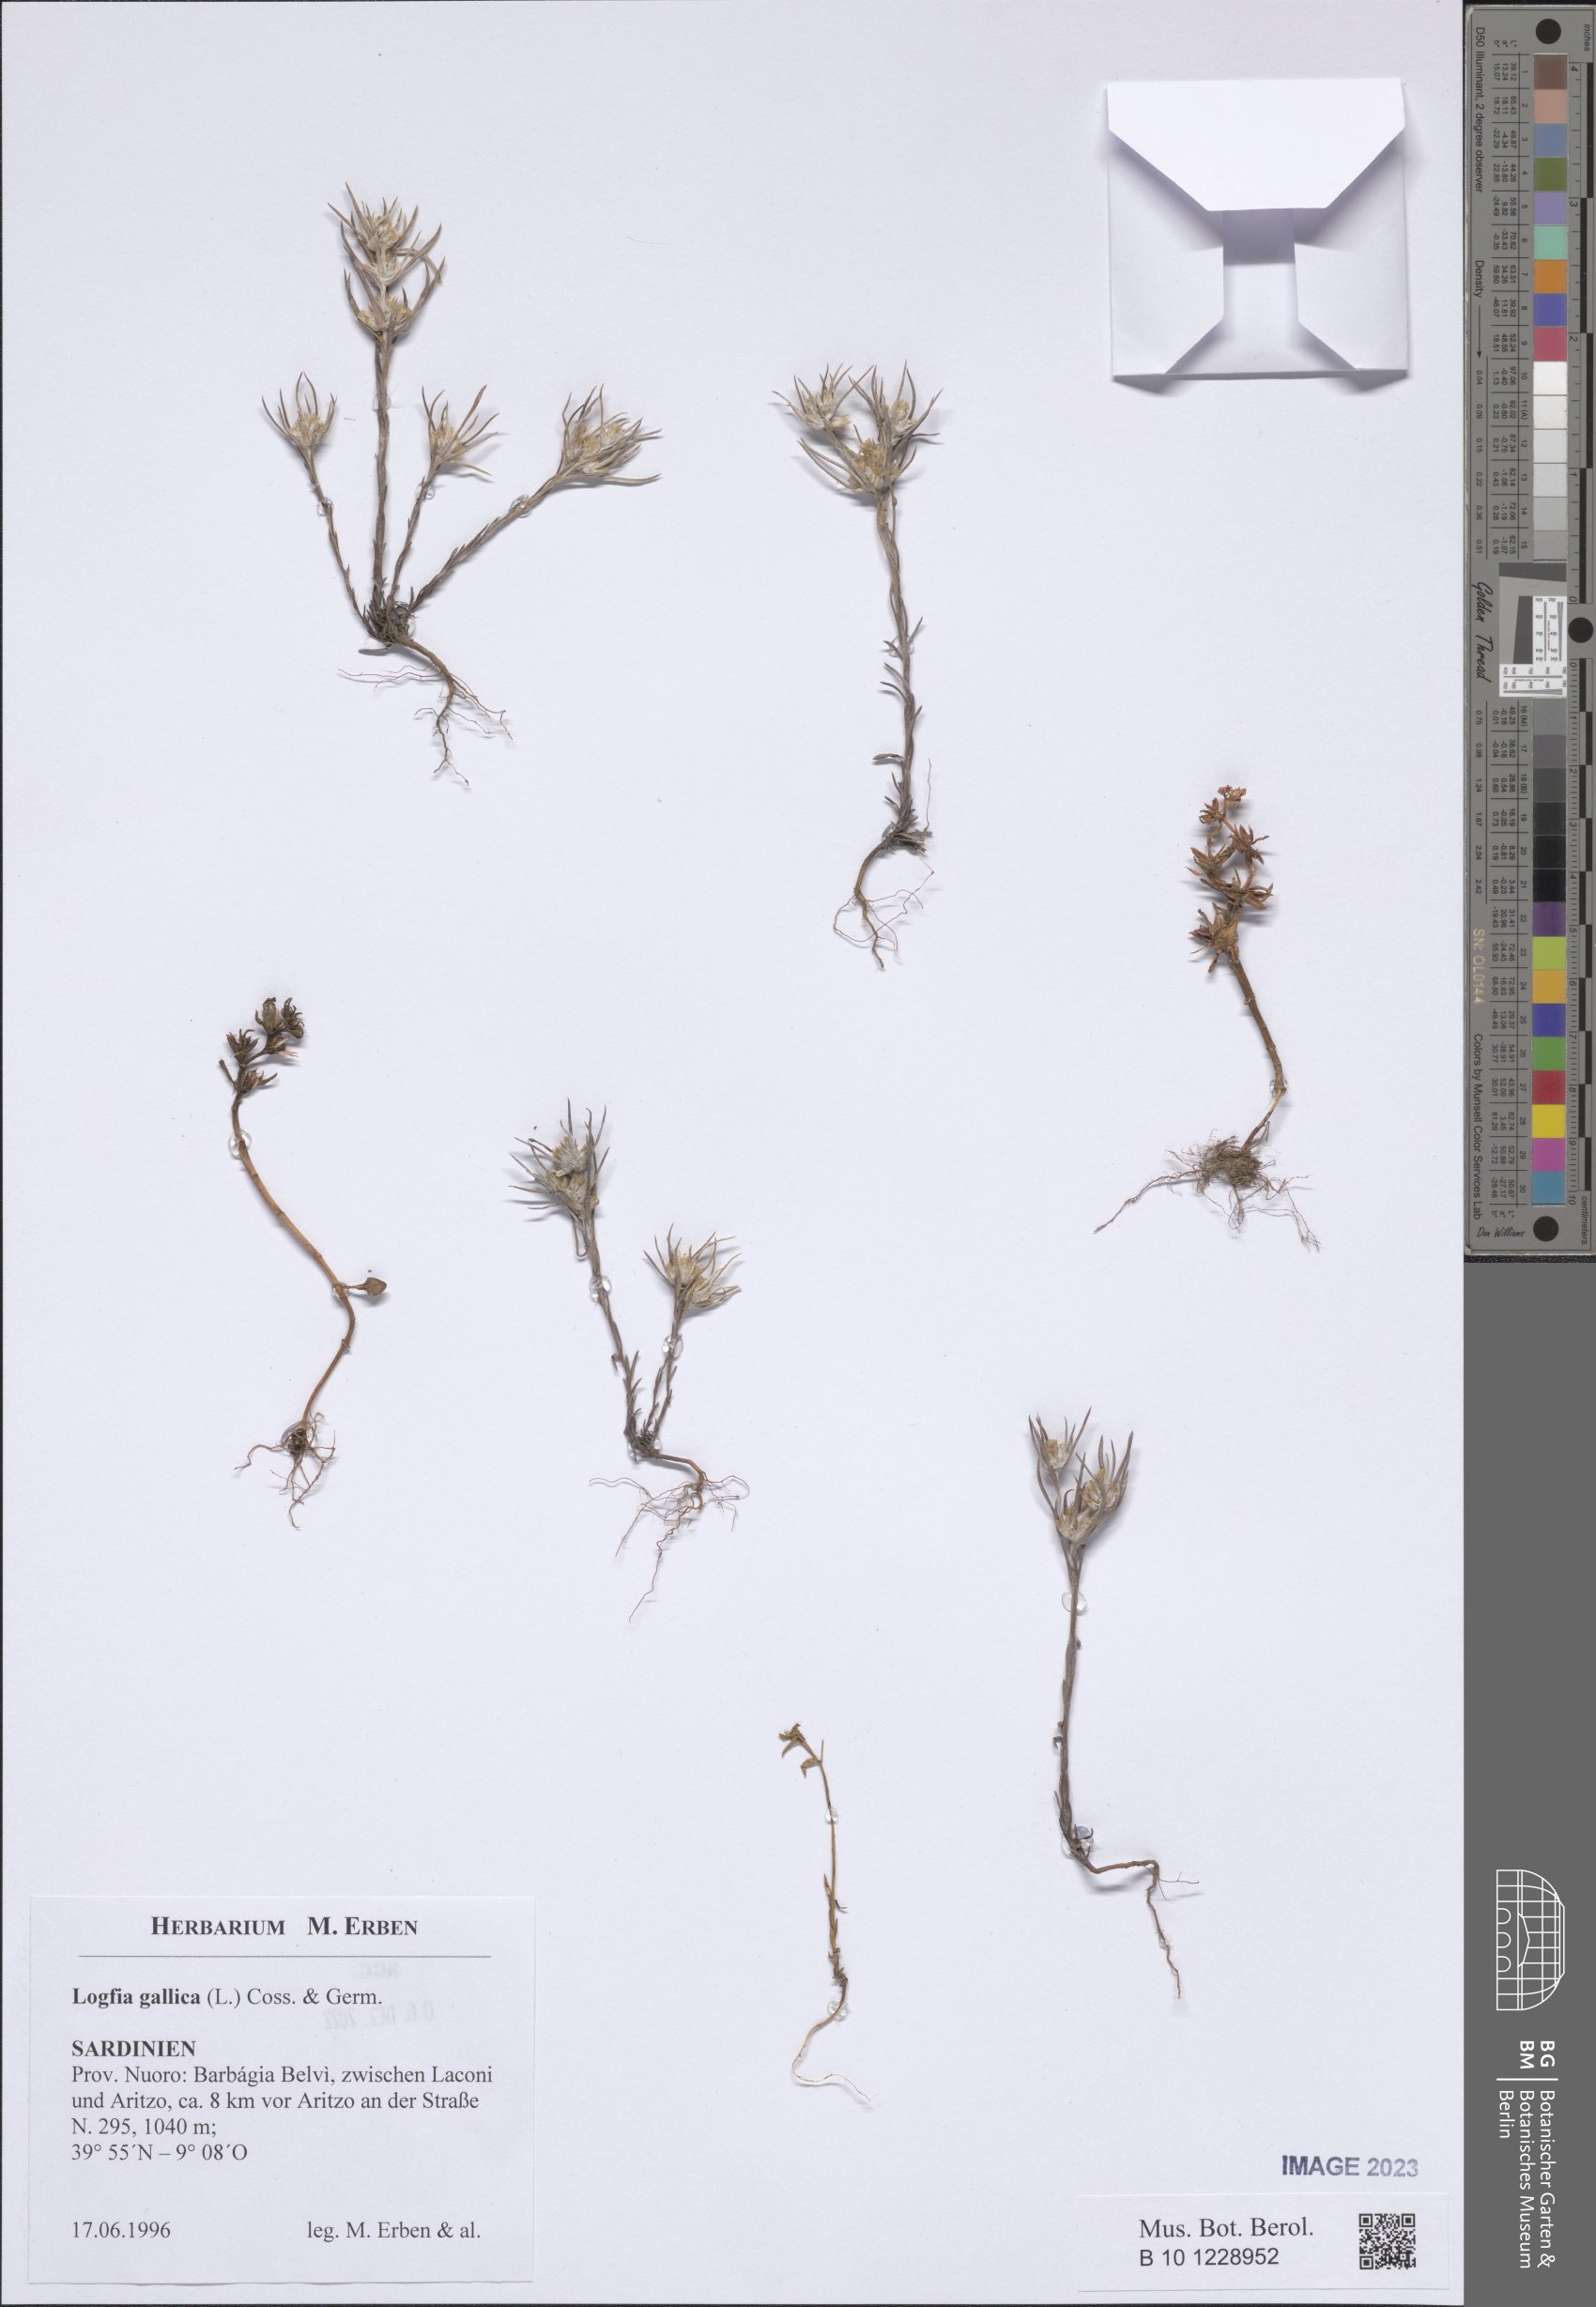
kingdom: Plantae
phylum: Tracheophyta
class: Magnoliopsida
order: Asterales
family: Asteraceae
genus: Logfia
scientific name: Logfia gallica
